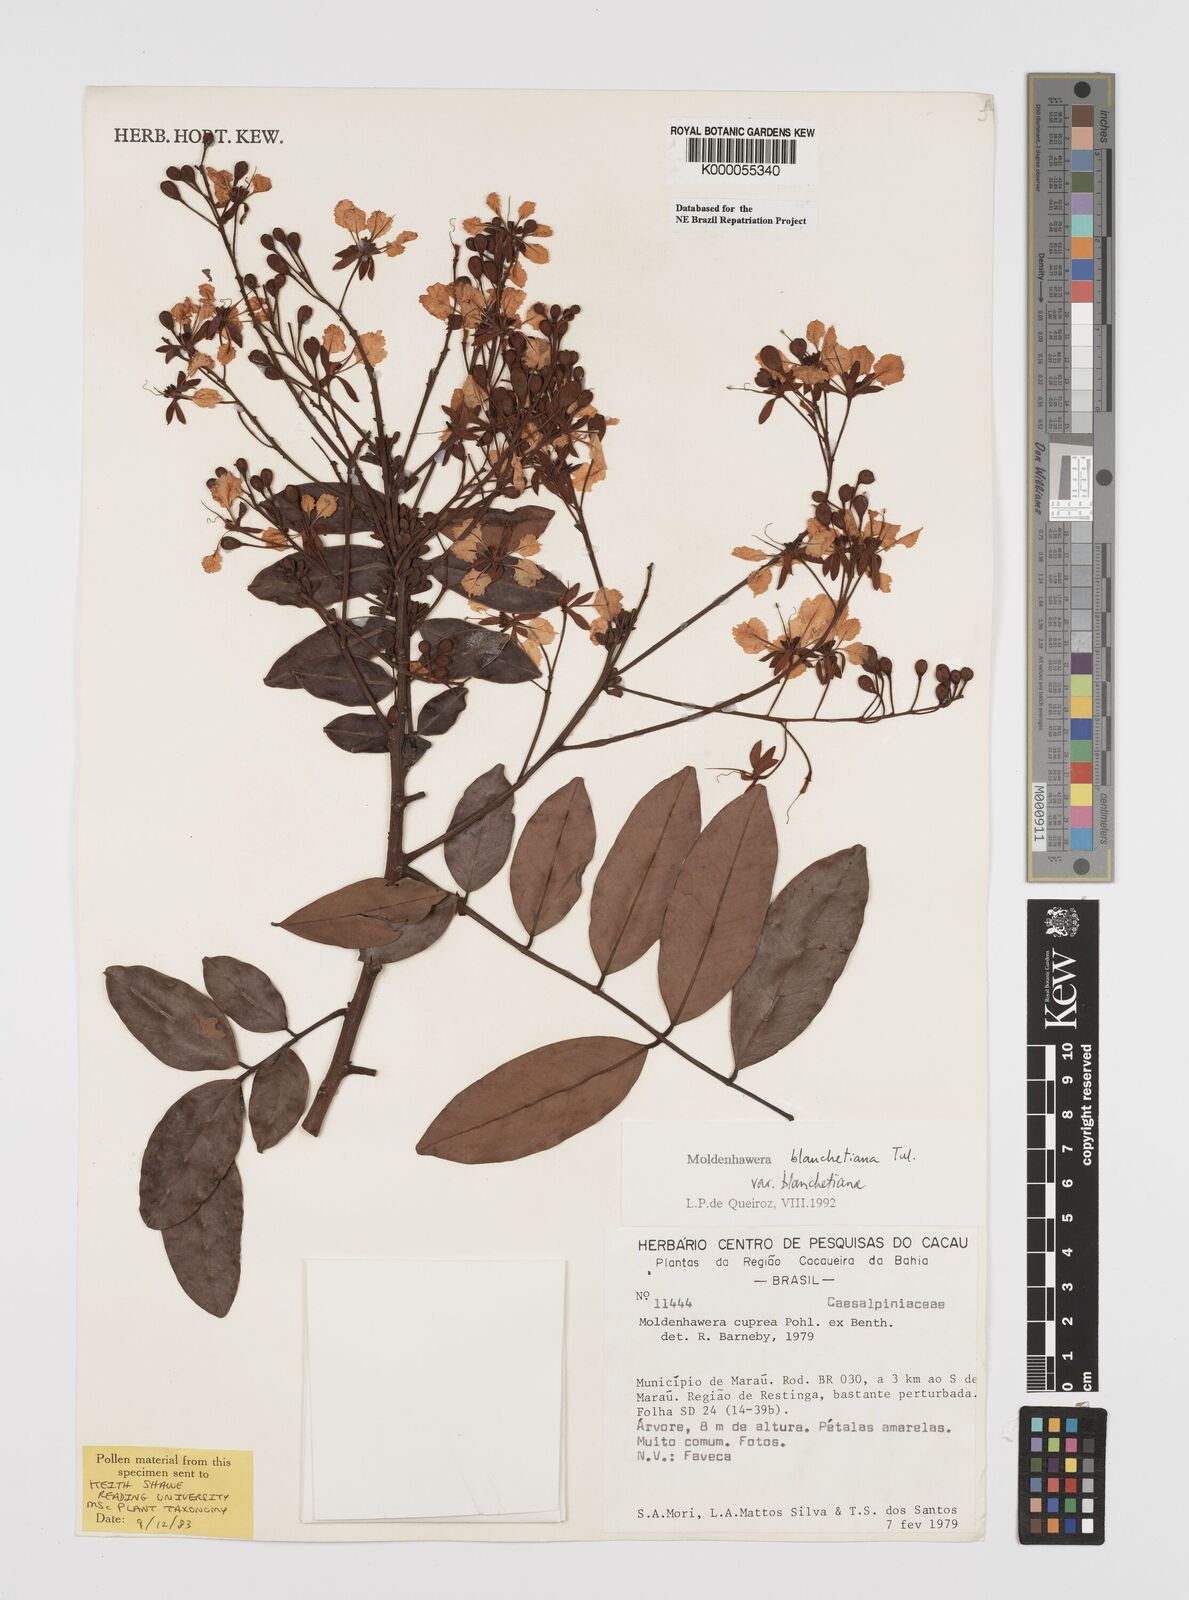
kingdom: Plantae
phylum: Tracheophyta
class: Magnoliopsida
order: Fabales
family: Fabaceae
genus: Moldenhawera
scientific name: Moldenhawera blanchetiana
